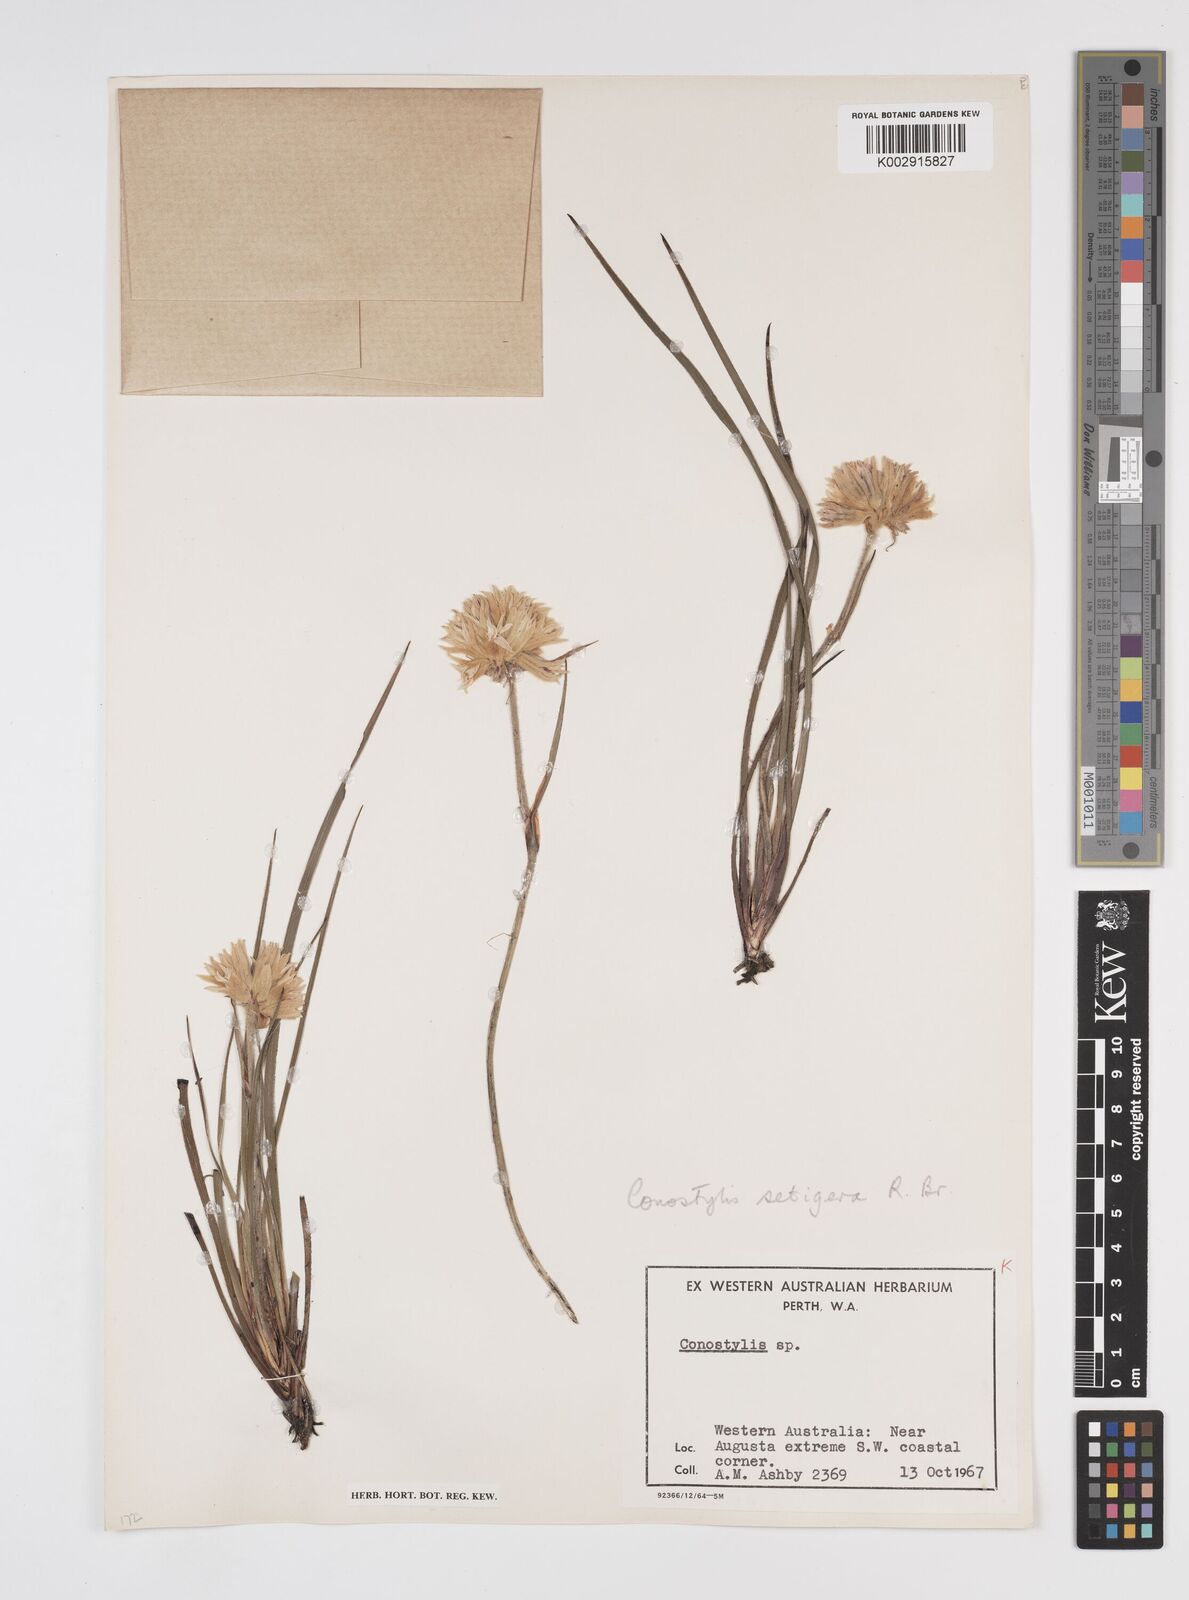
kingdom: Plantae
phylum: Tracheophyta
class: Liliopsida
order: Commelinales
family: Haemodoraceae
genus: Conostylis
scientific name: Conostylis setigera
